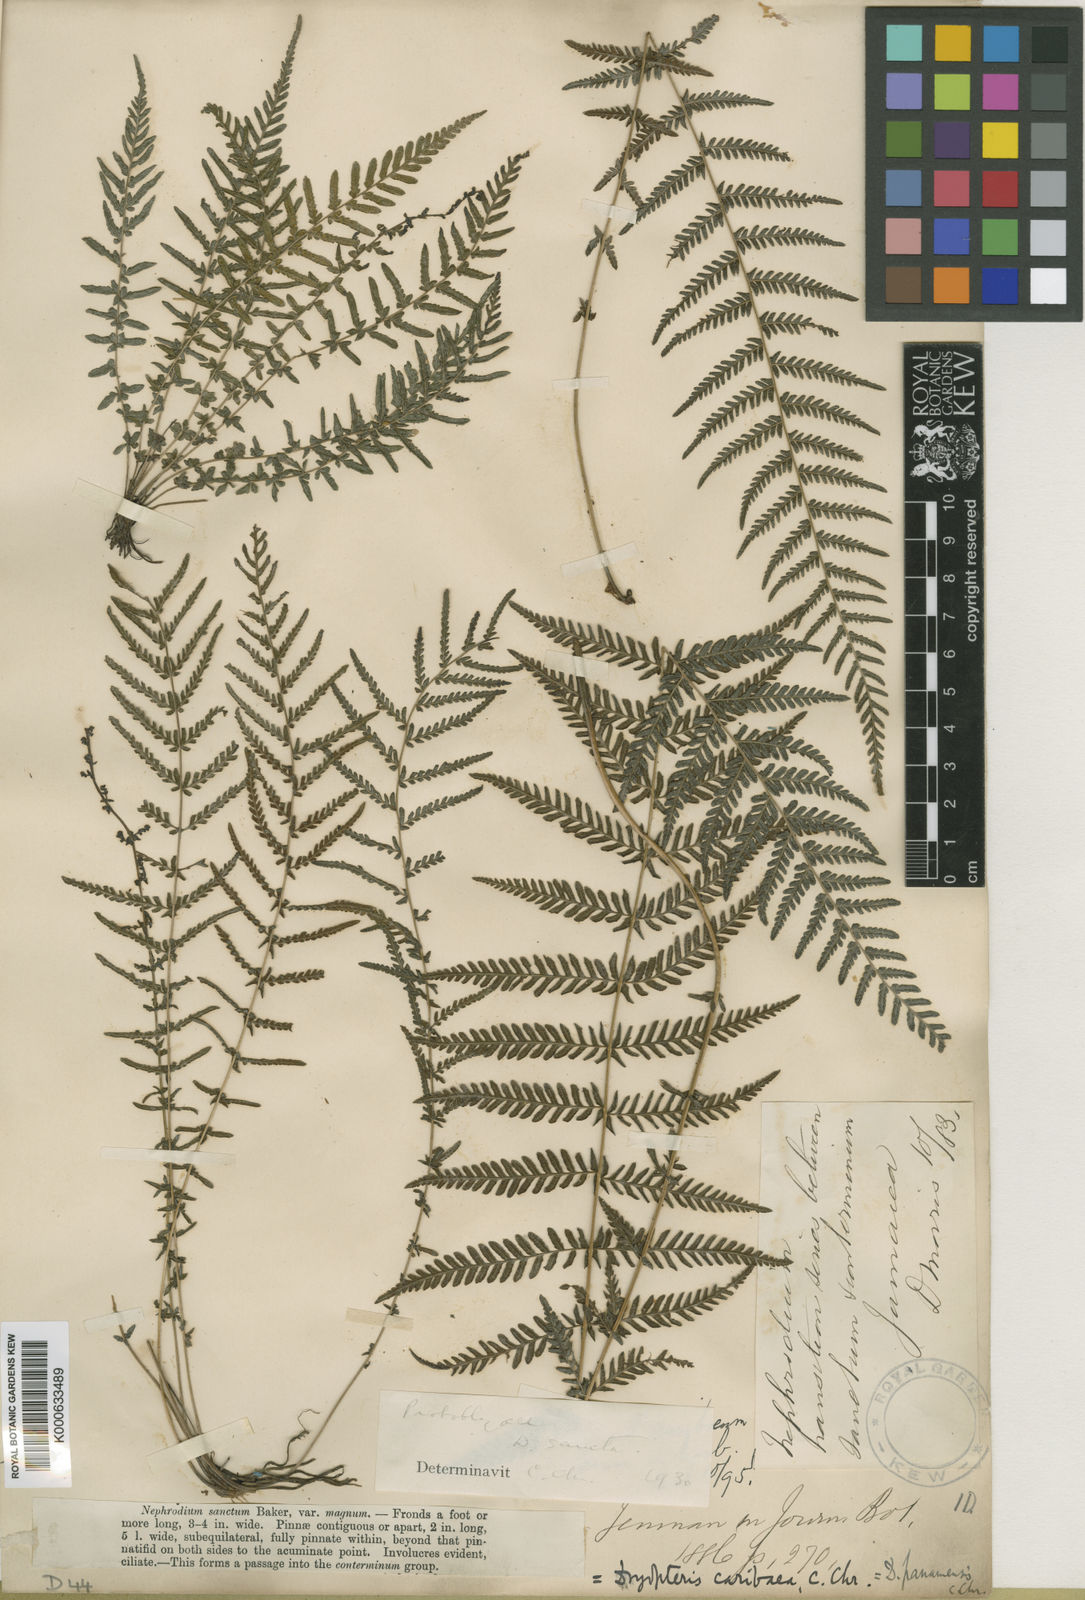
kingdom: Plantae
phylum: Tracheophyta
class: Polypodiopsida
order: Polypodiales
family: Thelypteridaceae
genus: Amauropelta
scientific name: Amauropelta cruciata
